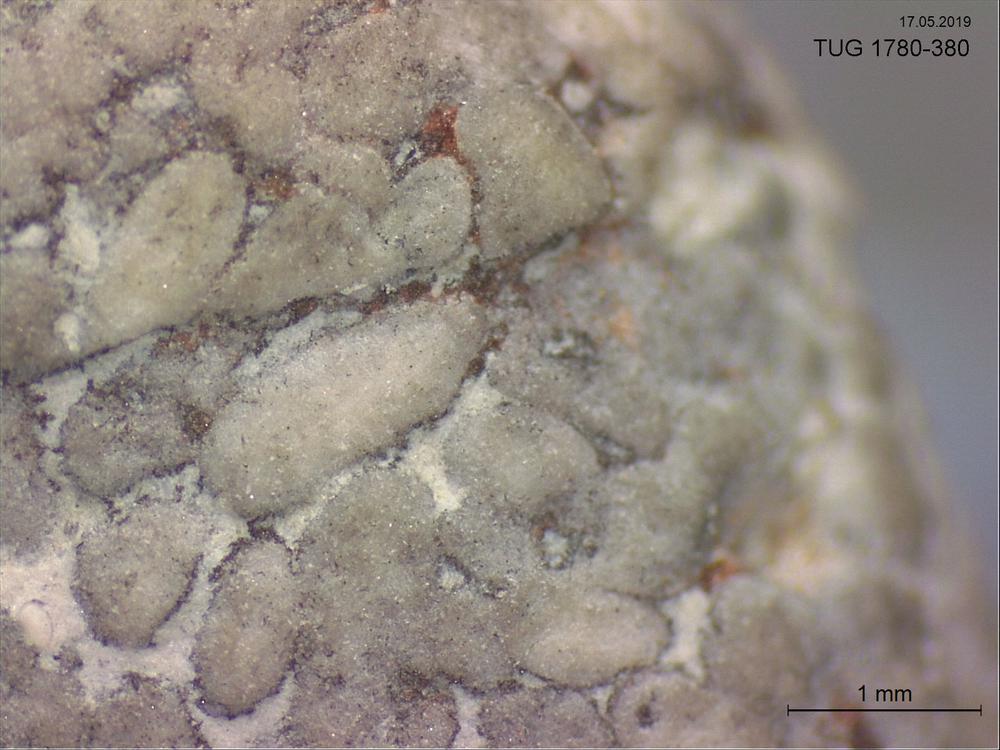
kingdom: Animalia
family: Coprulidae
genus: Coprulus
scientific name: Coprulus
